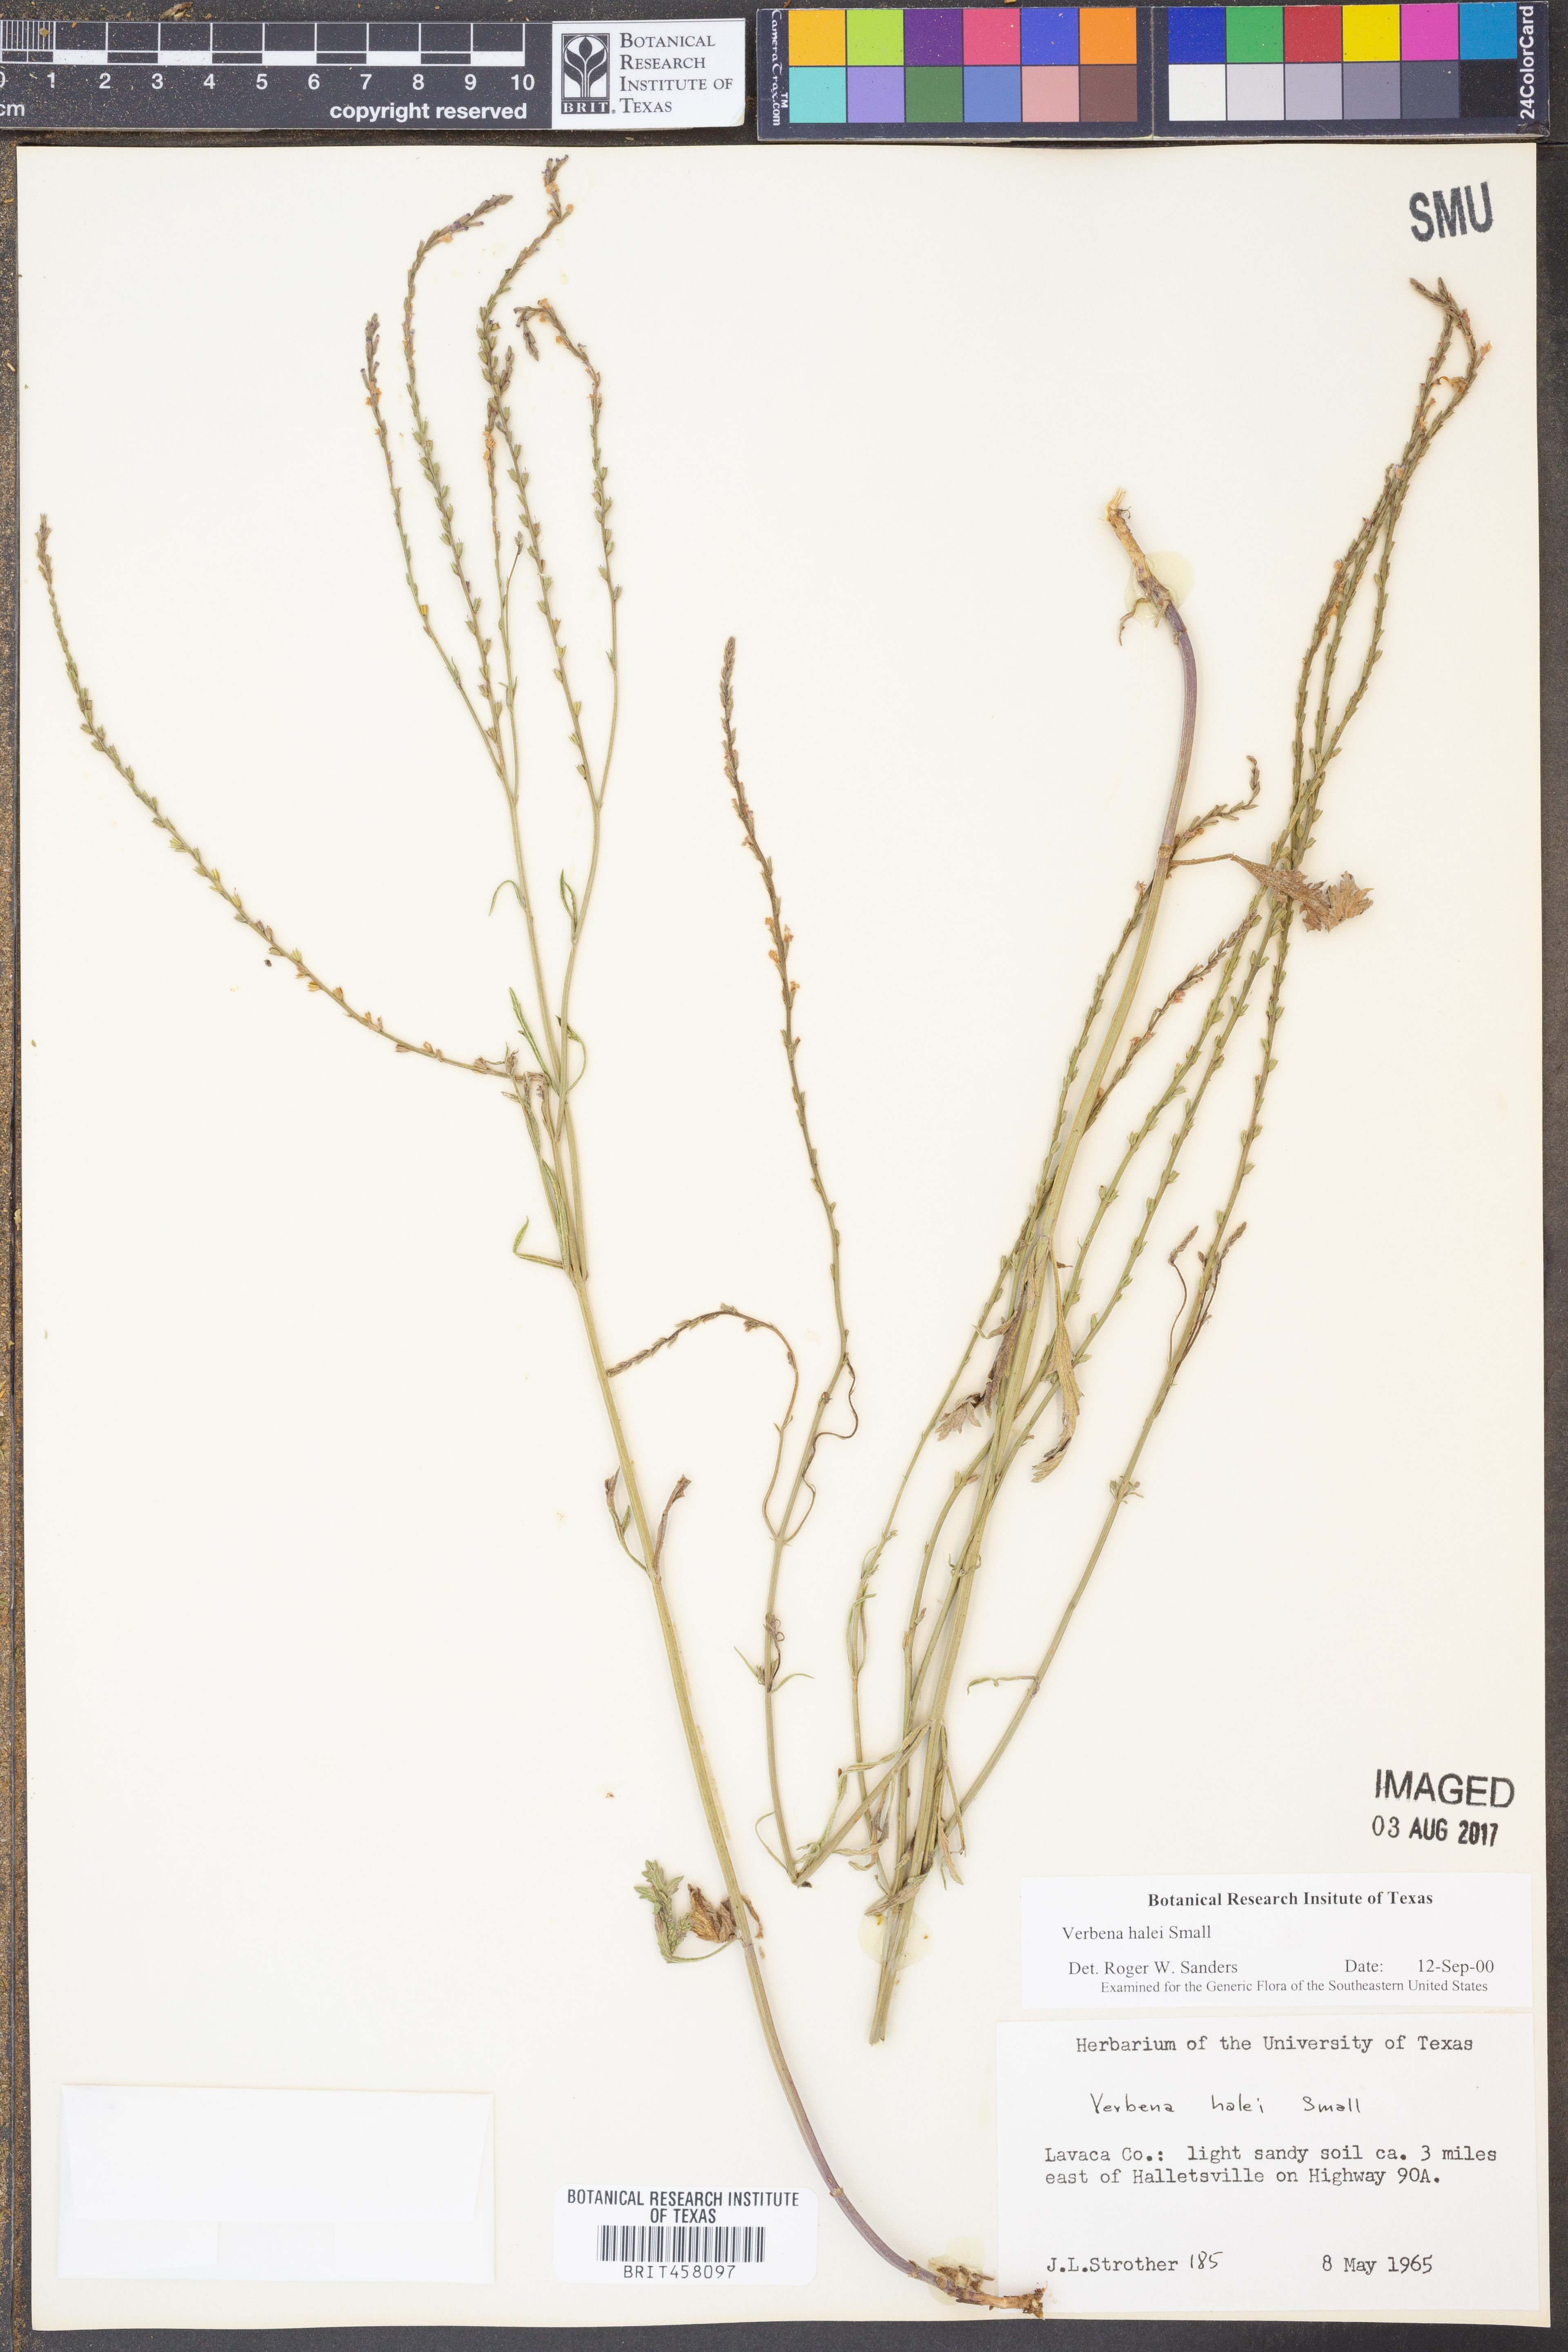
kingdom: Plantae
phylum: Tracheophyta
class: Magnoliopsida
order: Lamiales
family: Verbenaceae
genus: Verbena
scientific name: Verbena halei
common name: Texas vervain
